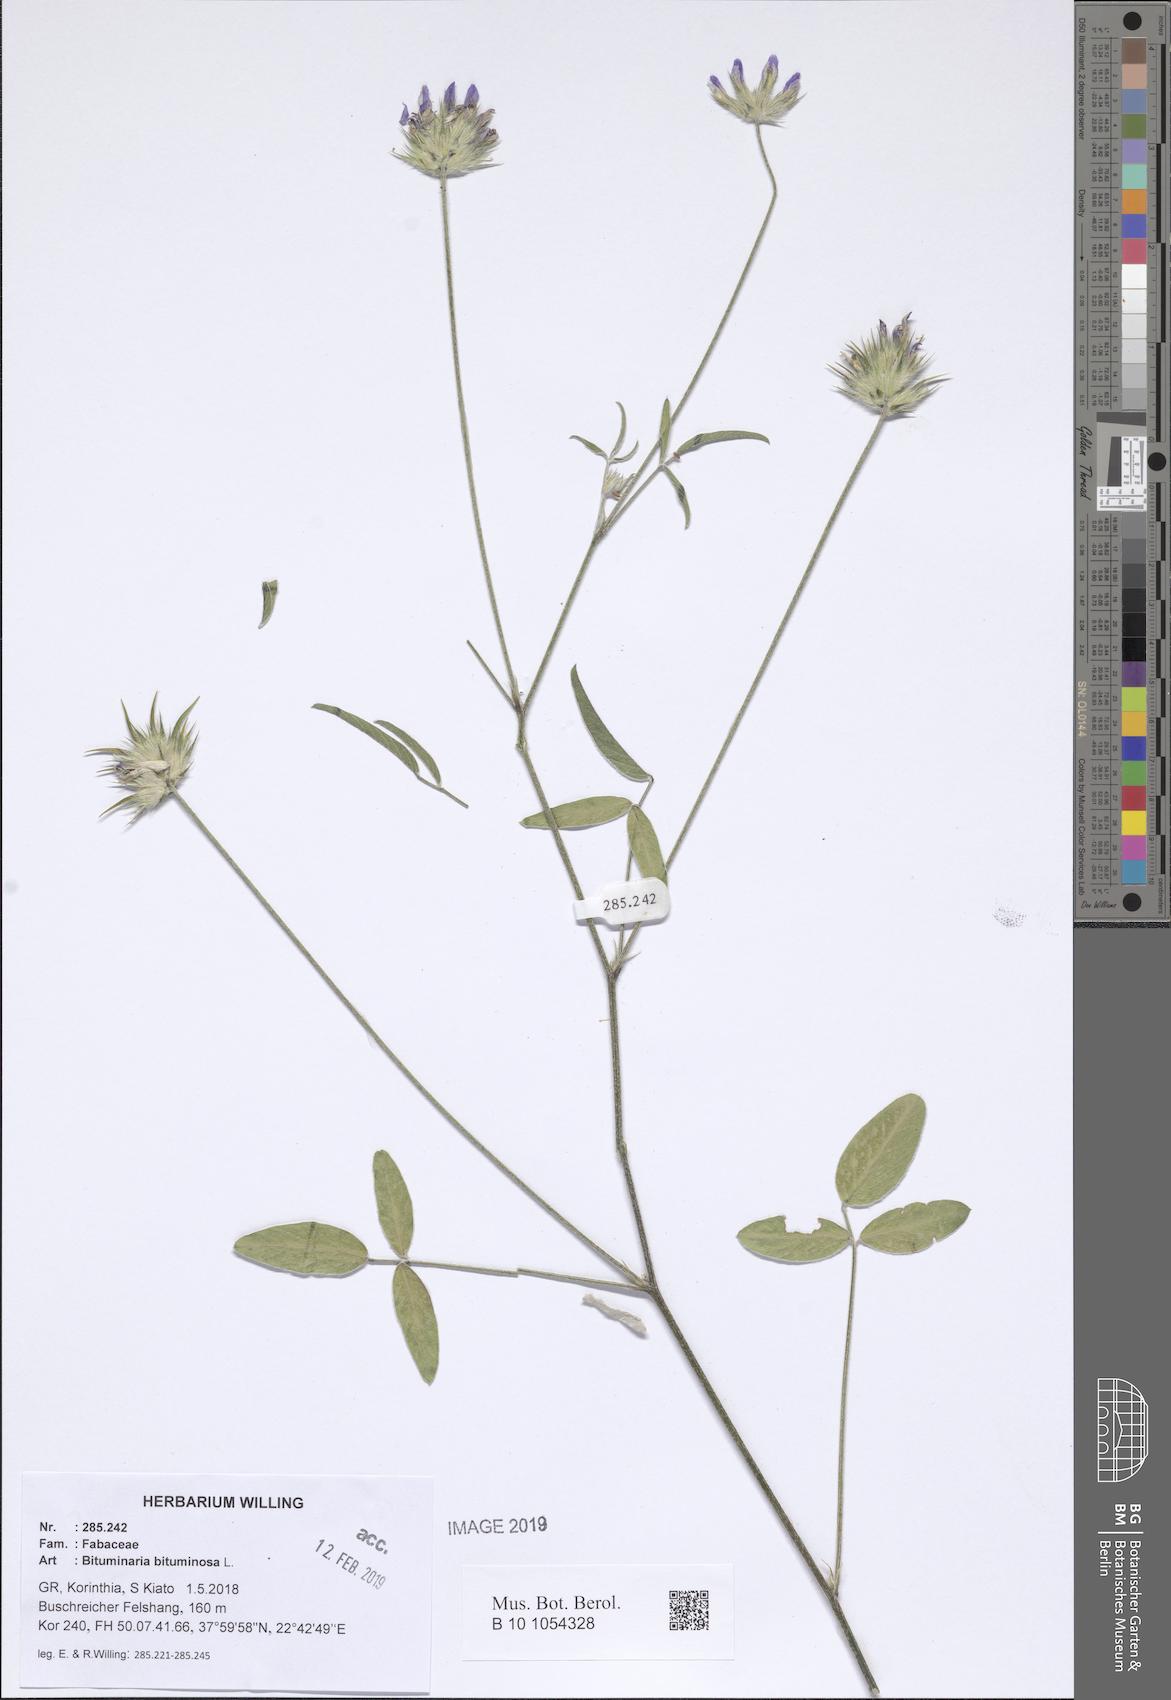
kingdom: Plantae
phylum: Tracheophyta
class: Magnoliopsida
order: Fabales
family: Fabaceae
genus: Bituminaria
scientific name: Bituminaria bituminosa
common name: Arabian pea
